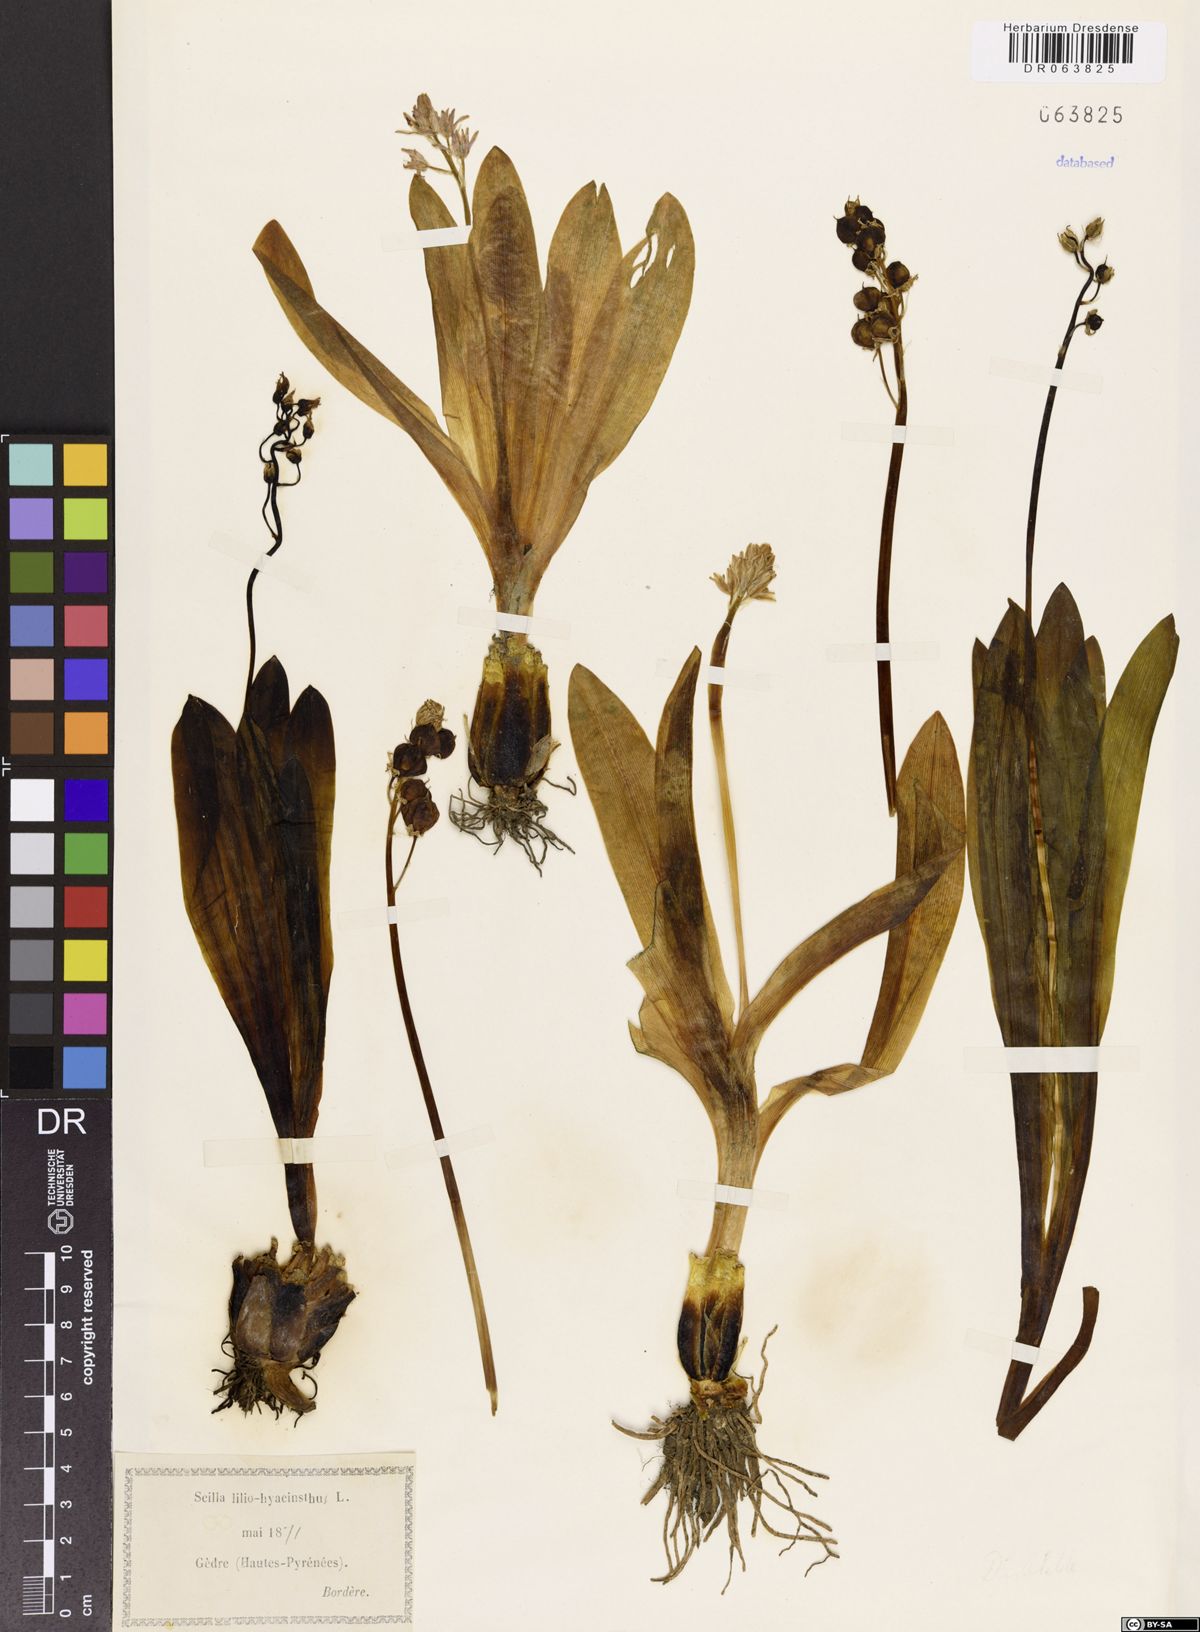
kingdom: Plantae
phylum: Tracheophyta
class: Liliopsida
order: Asparagales
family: Asparagaceae
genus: Scilla
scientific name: Scilla lilio-hyacinthus
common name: Pyrenean squill
